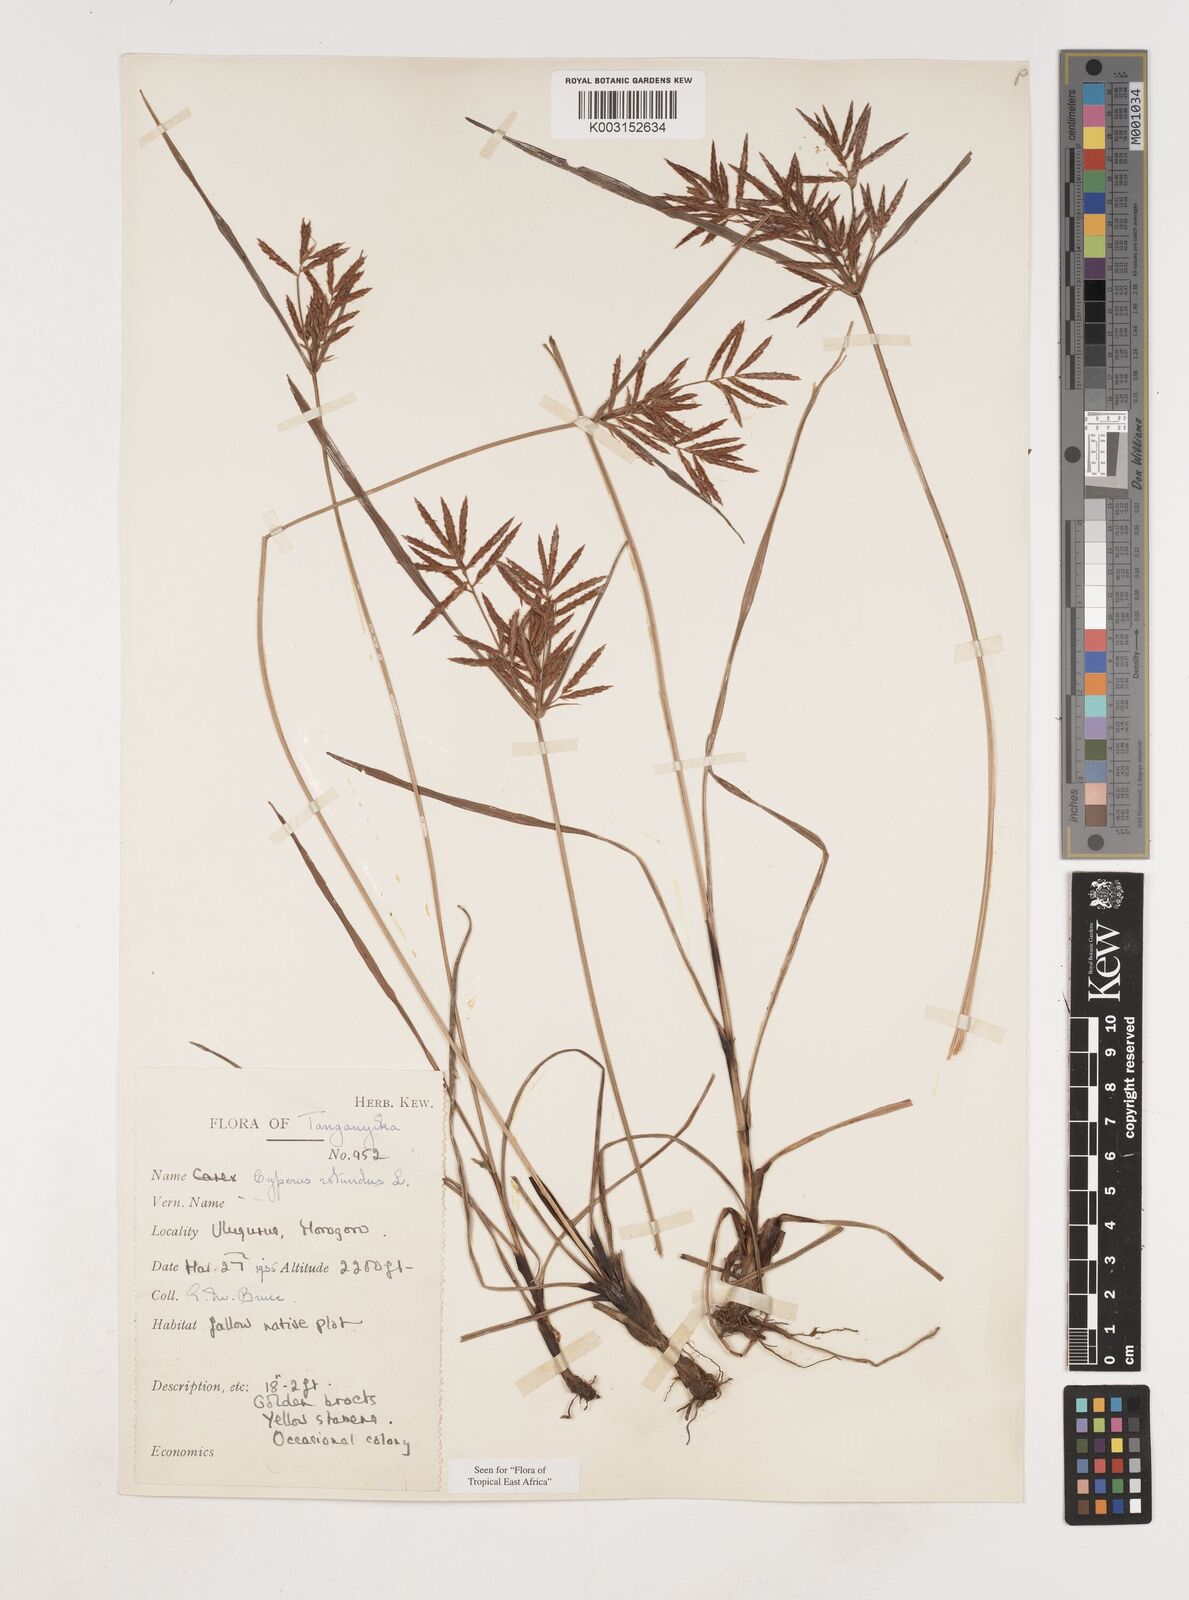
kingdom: Plantae
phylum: Tracheophyta
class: Liliopsida
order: Poales
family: Cyperaceae
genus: Cyperus
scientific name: Cyperus rotundus
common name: Nutgrass
